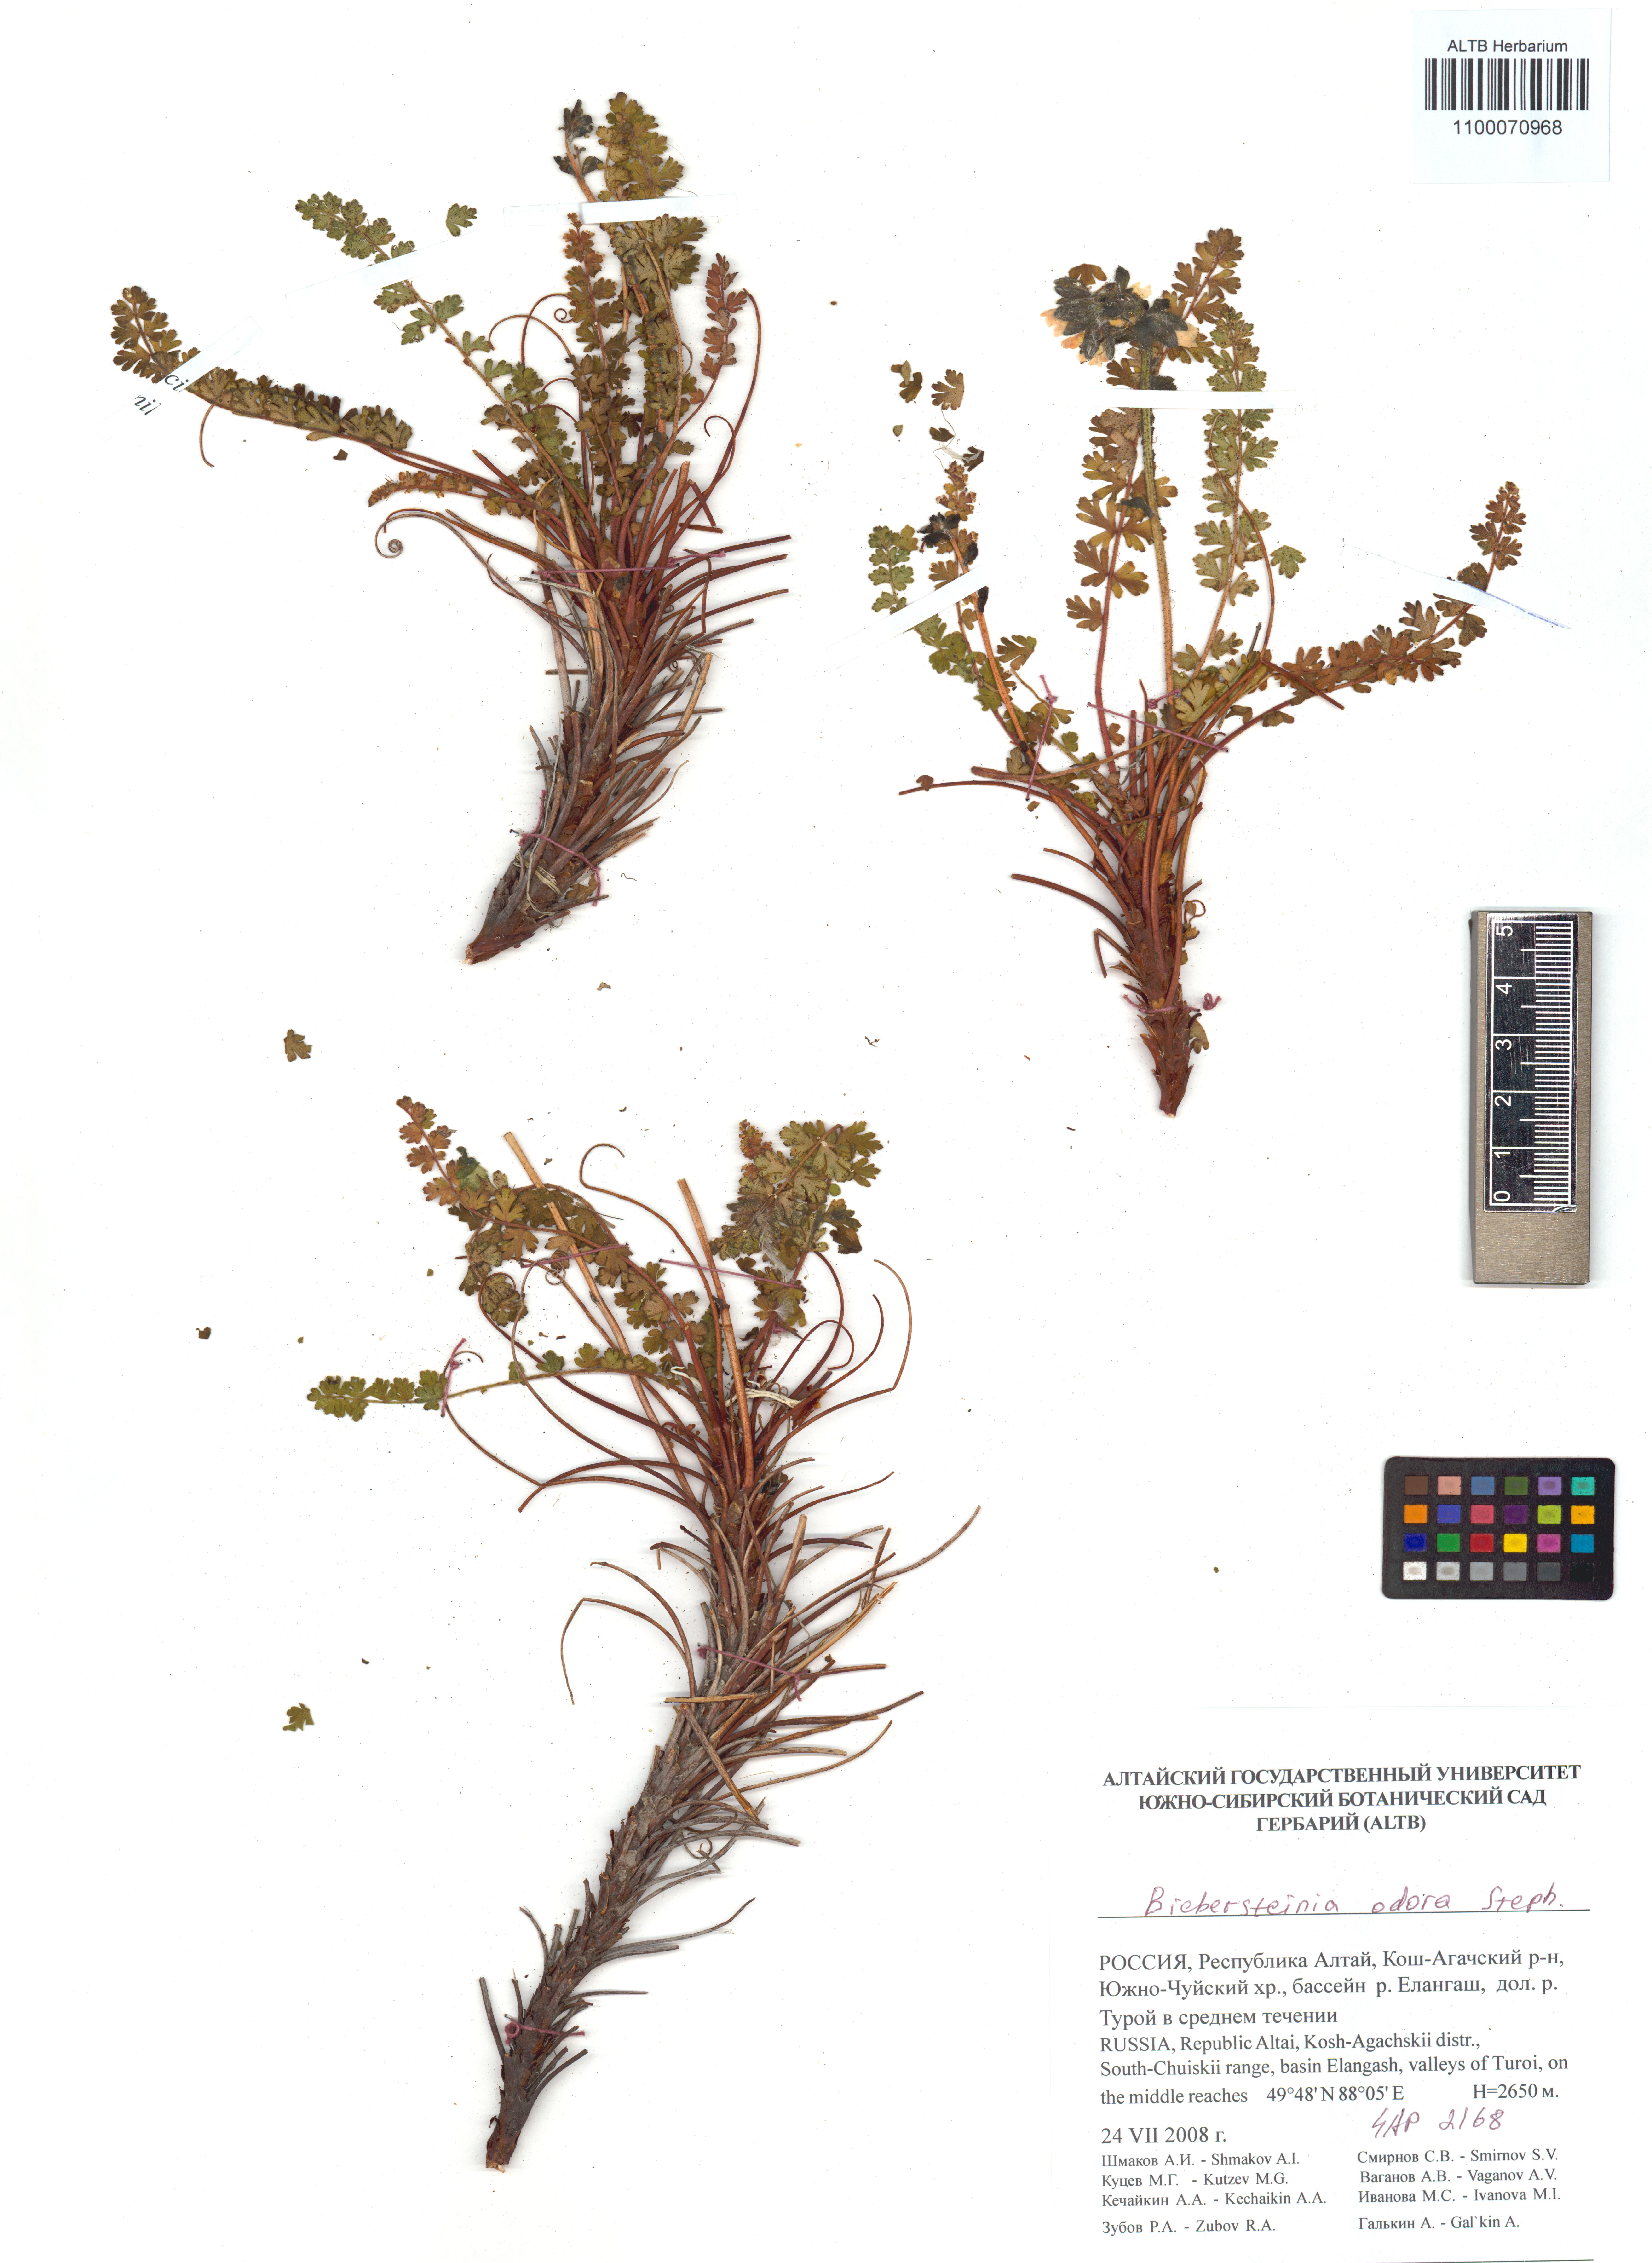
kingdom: Plantae
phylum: Tracheophyta
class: Magnoliopsida
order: Sapindales
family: Biebersteiniaceae
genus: Biebersteinia
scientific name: Biebersteinia odora
